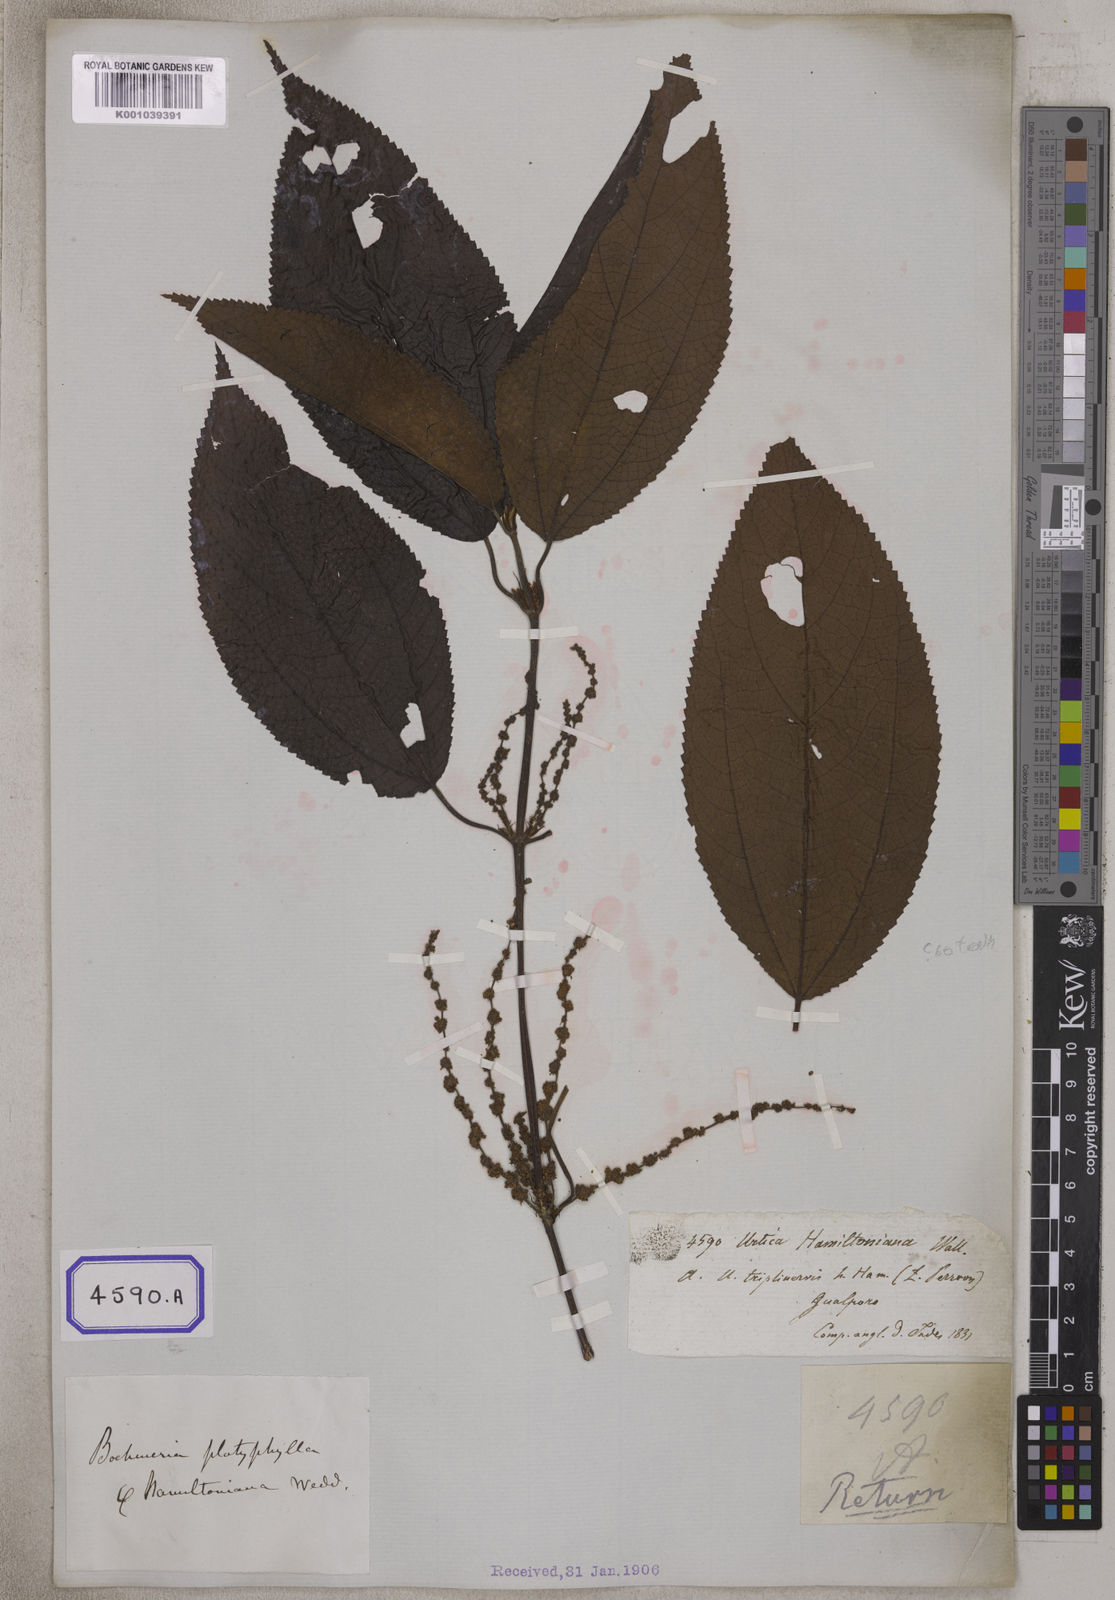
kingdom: Plantae
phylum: Tracheophyta
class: Magnoliopsida
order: Rosales
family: Urticaceae
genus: Boehmeria
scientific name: Boehmeria hamiltoniana
